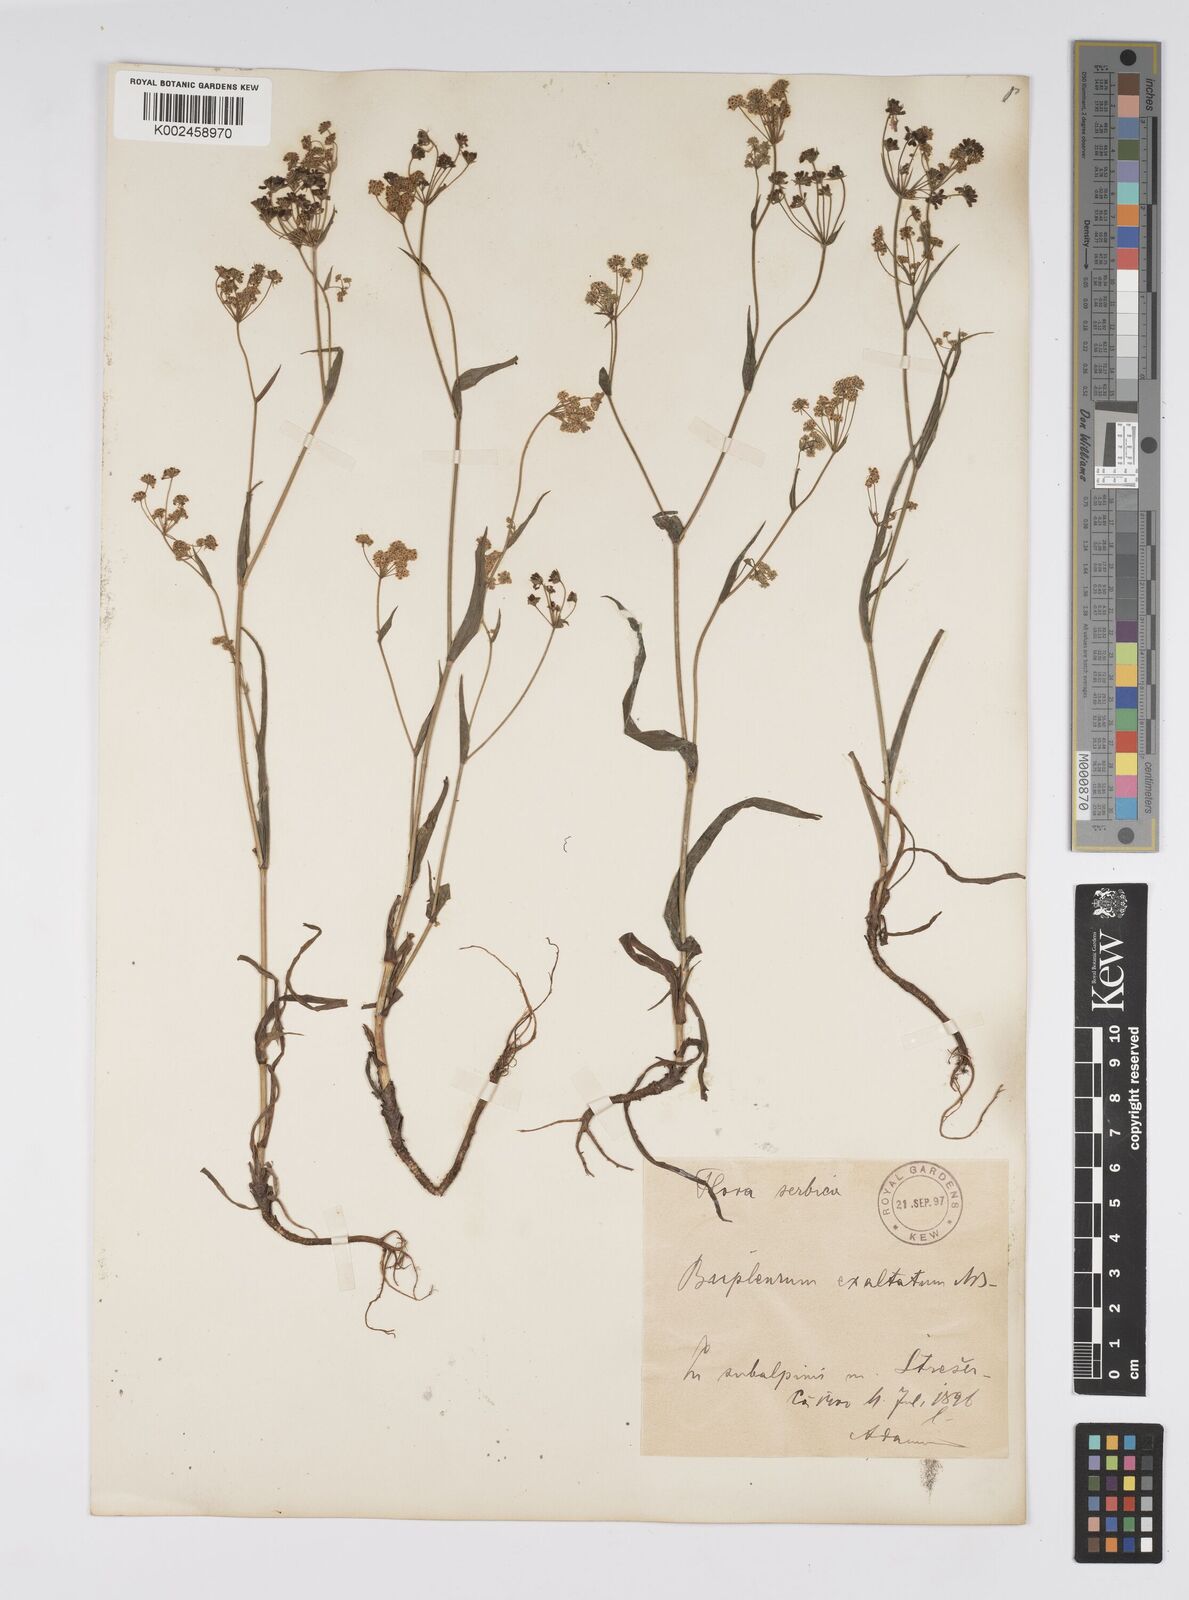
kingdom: Plantae
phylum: Tracheophyta
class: Magnoliopsida
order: Apiales
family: Apiaceae
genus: Bupleurum
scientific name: Bupleurum falcatum
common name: Sickle-leaved hare's-ear
